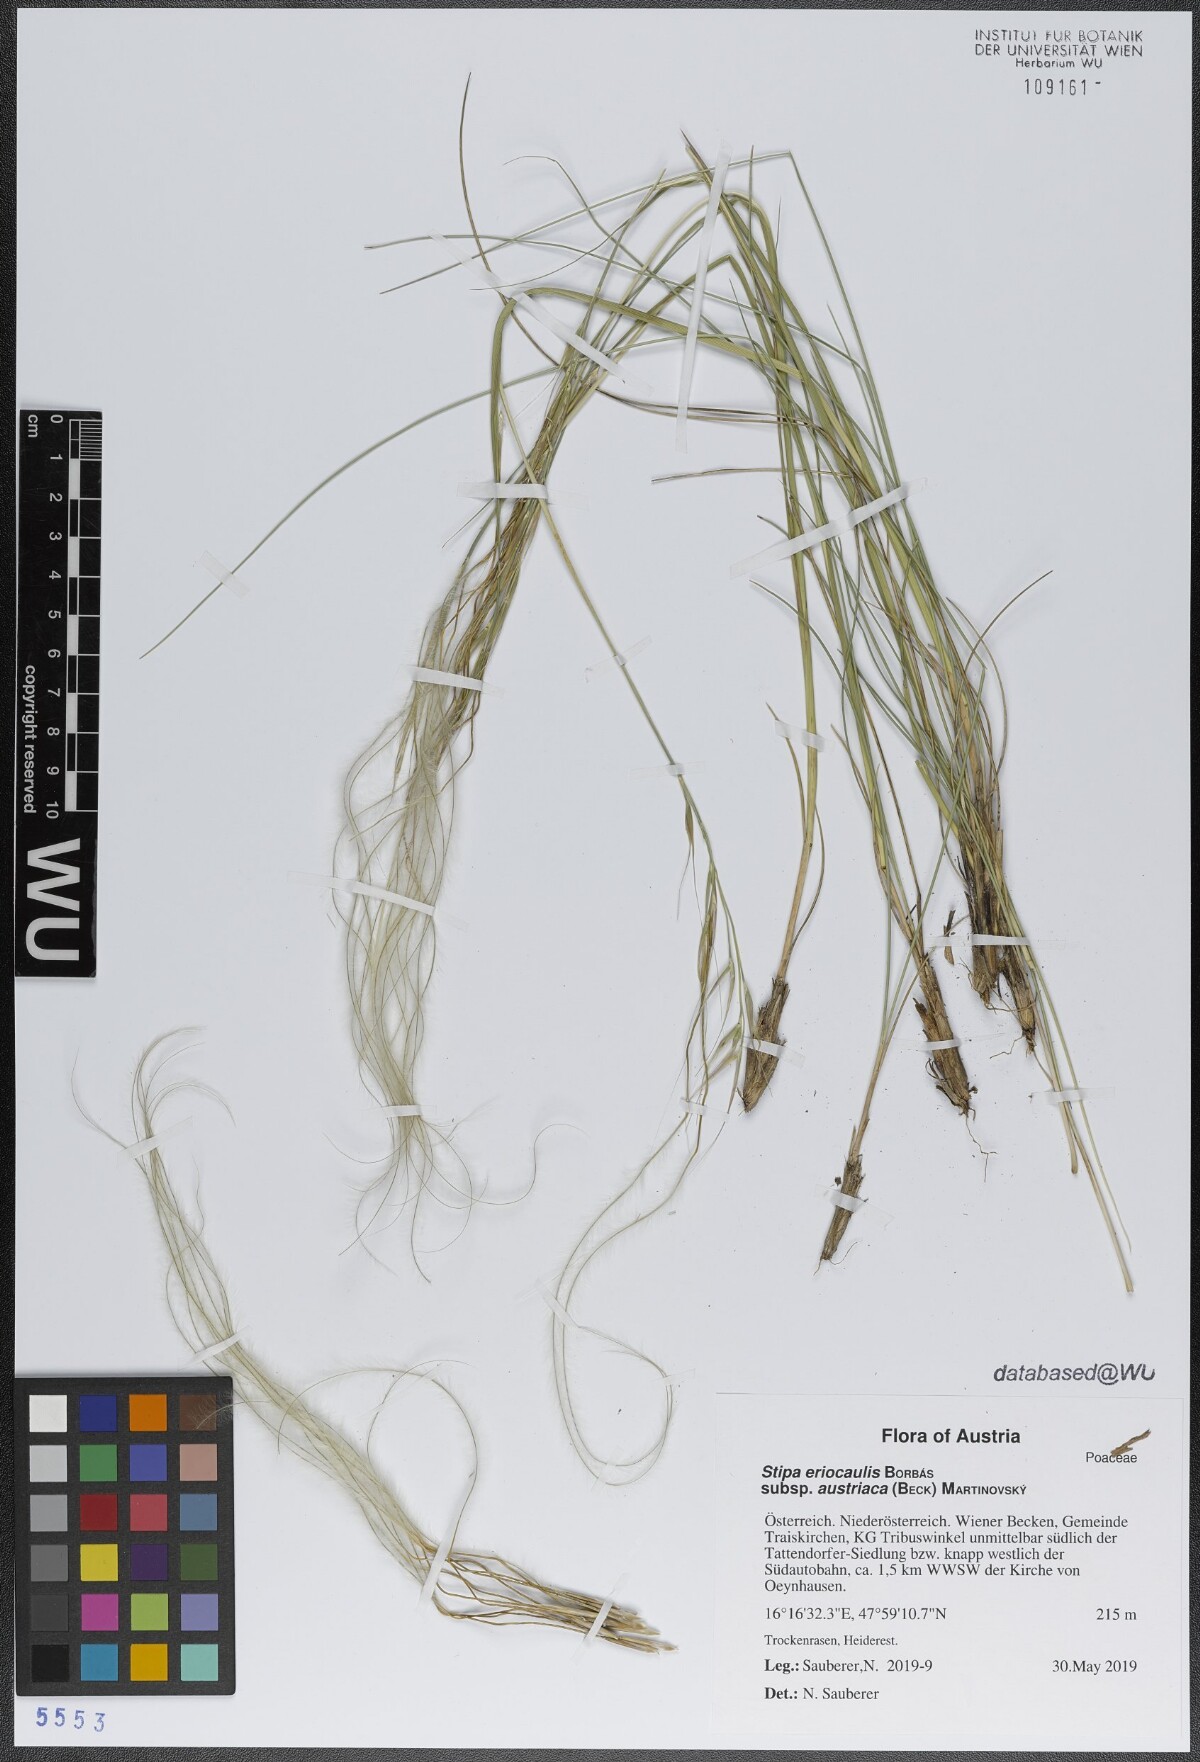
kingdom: Plantae
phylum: Tracheophyta
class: Liliopsida
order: Poales
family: Poaceae
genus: Stipa
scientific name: Stipa pennata
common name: European feather grass
